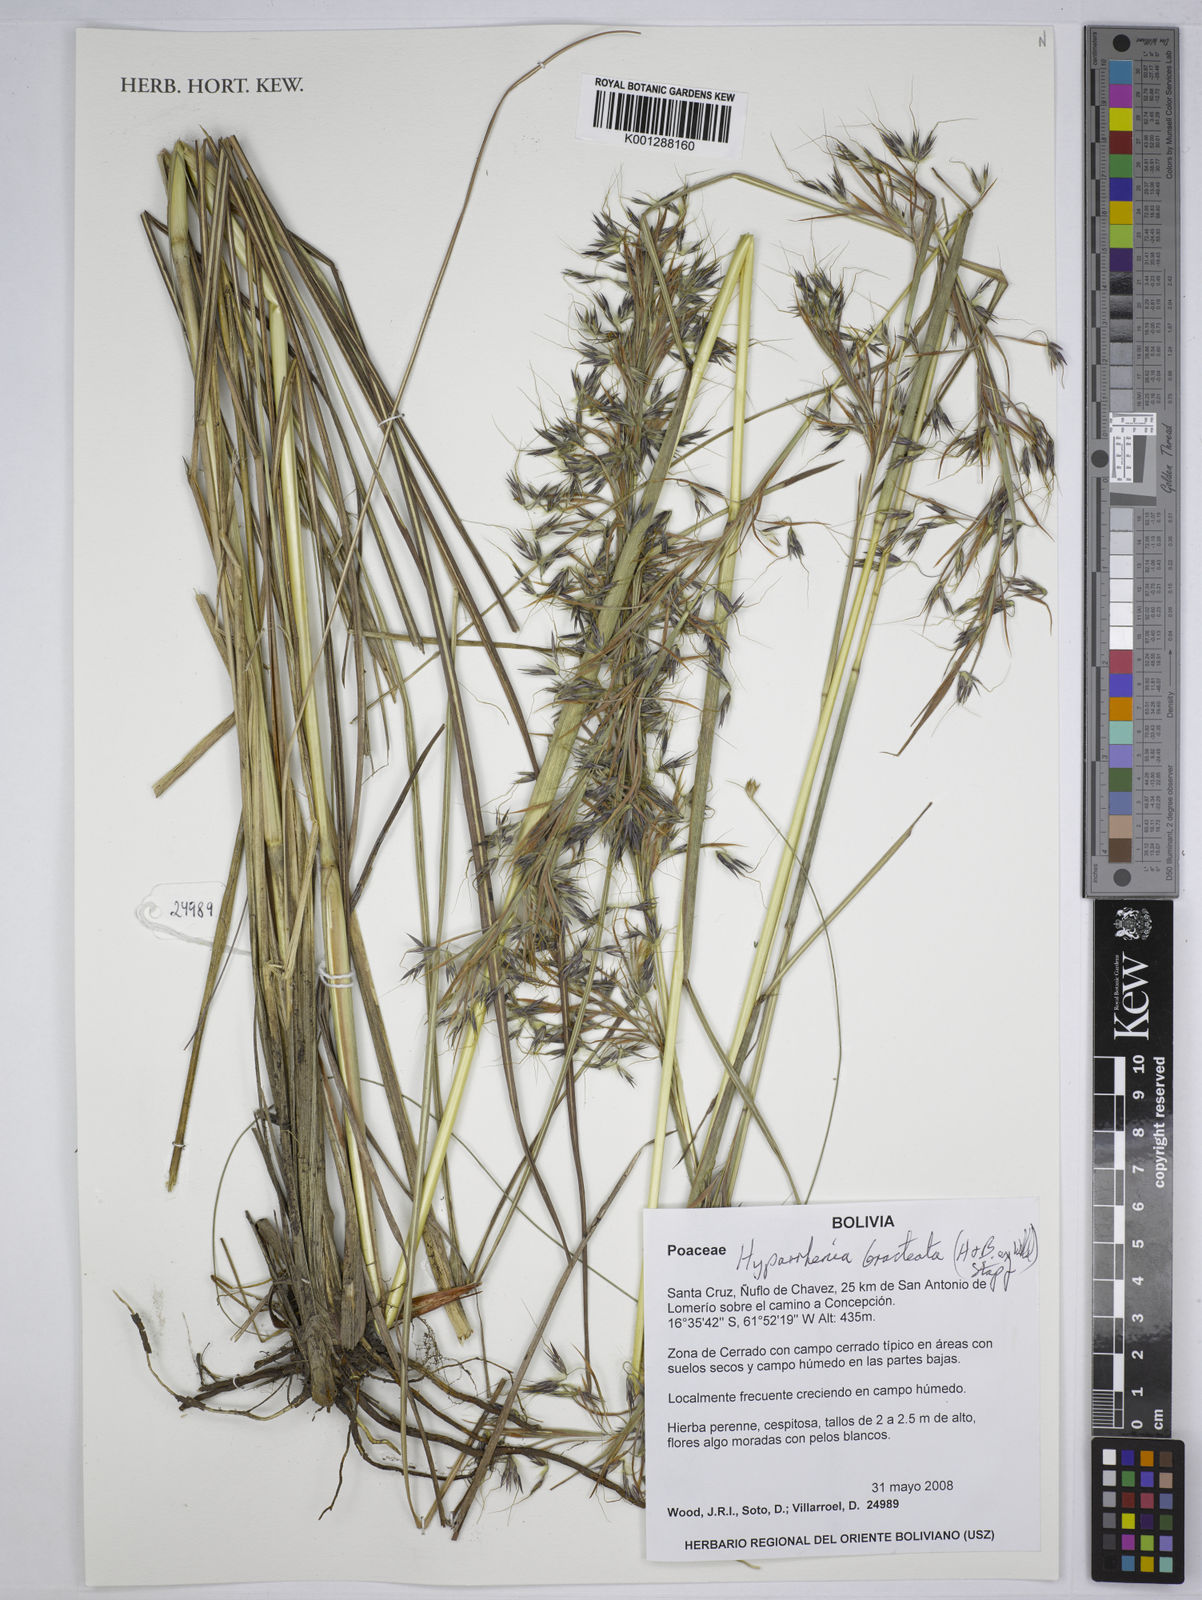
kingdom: Plantae
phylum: Tracheophyta
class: Liliopsida
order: Poales
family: Poaceae
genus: Hyparrhenia
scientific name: Hyparrhenia bracteata
